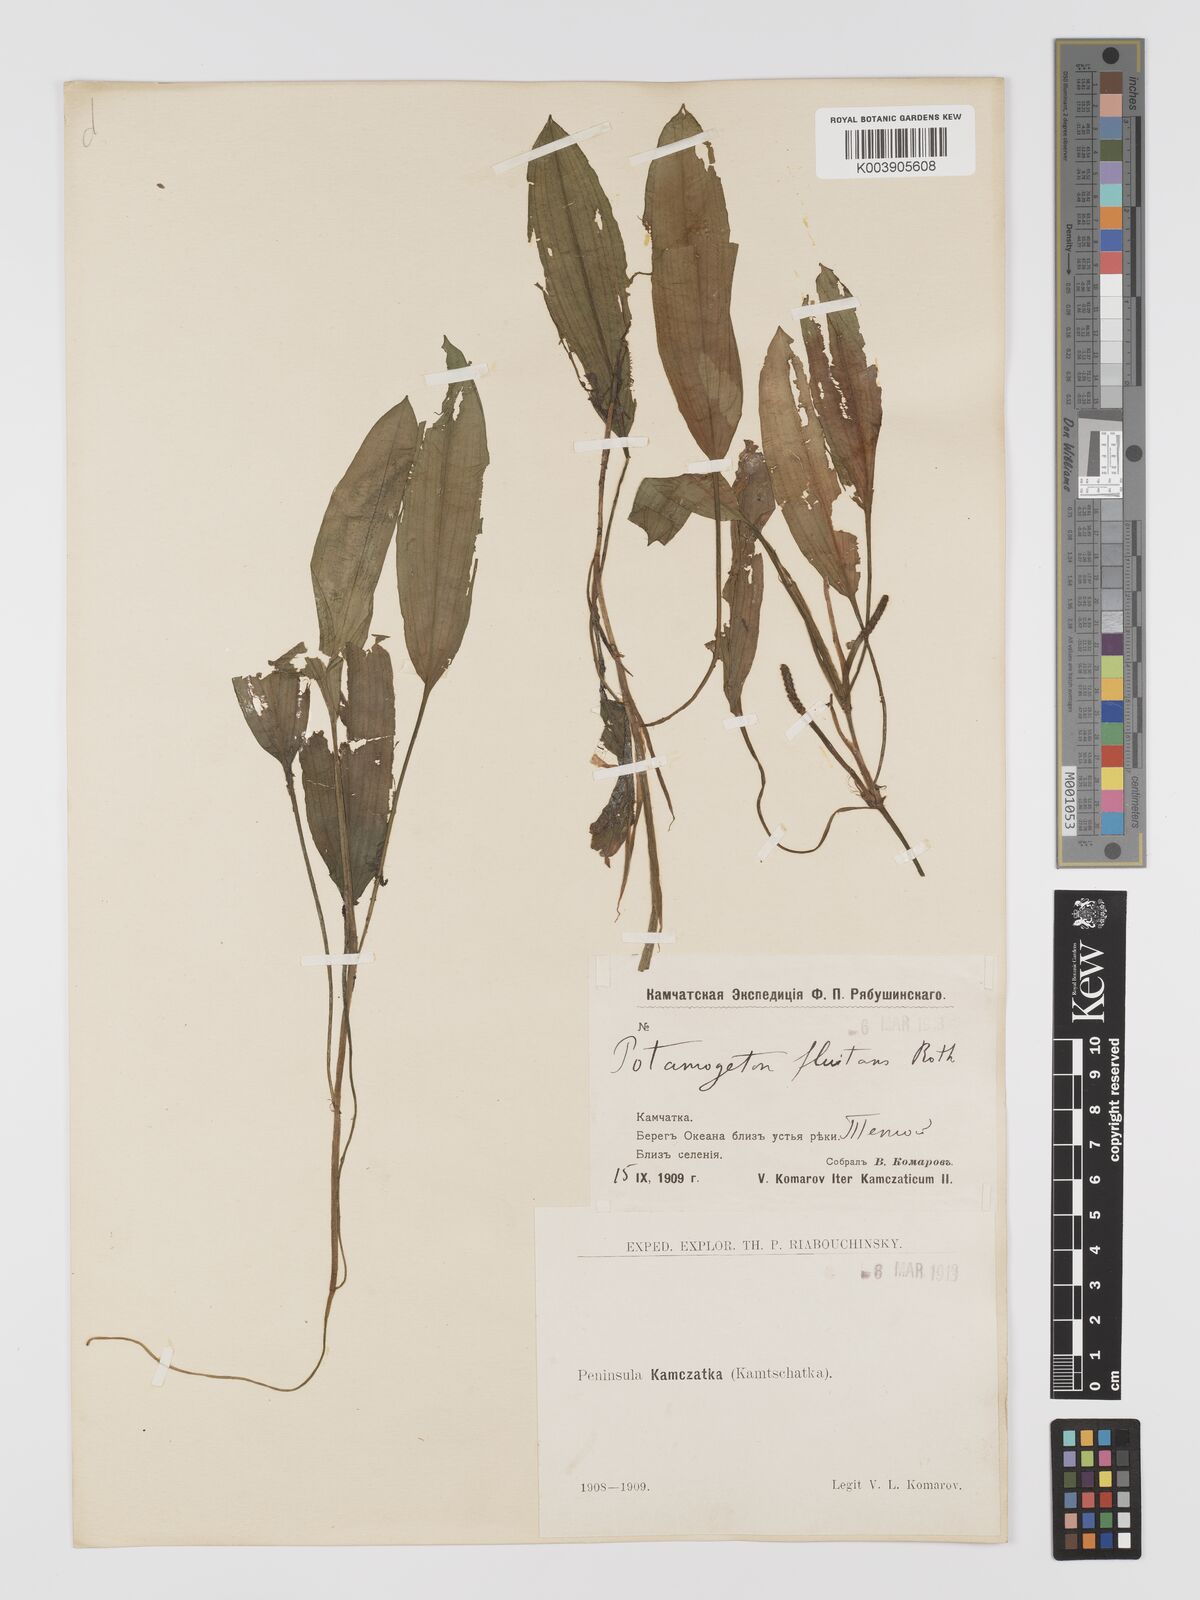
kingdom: Plantae
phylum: Tracheophyta
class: Liliopsida
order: Alismatales
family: Potamogetonaceae
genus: Potamogeton
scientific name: Potamogeton nodosus
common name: Loddon pondweed
